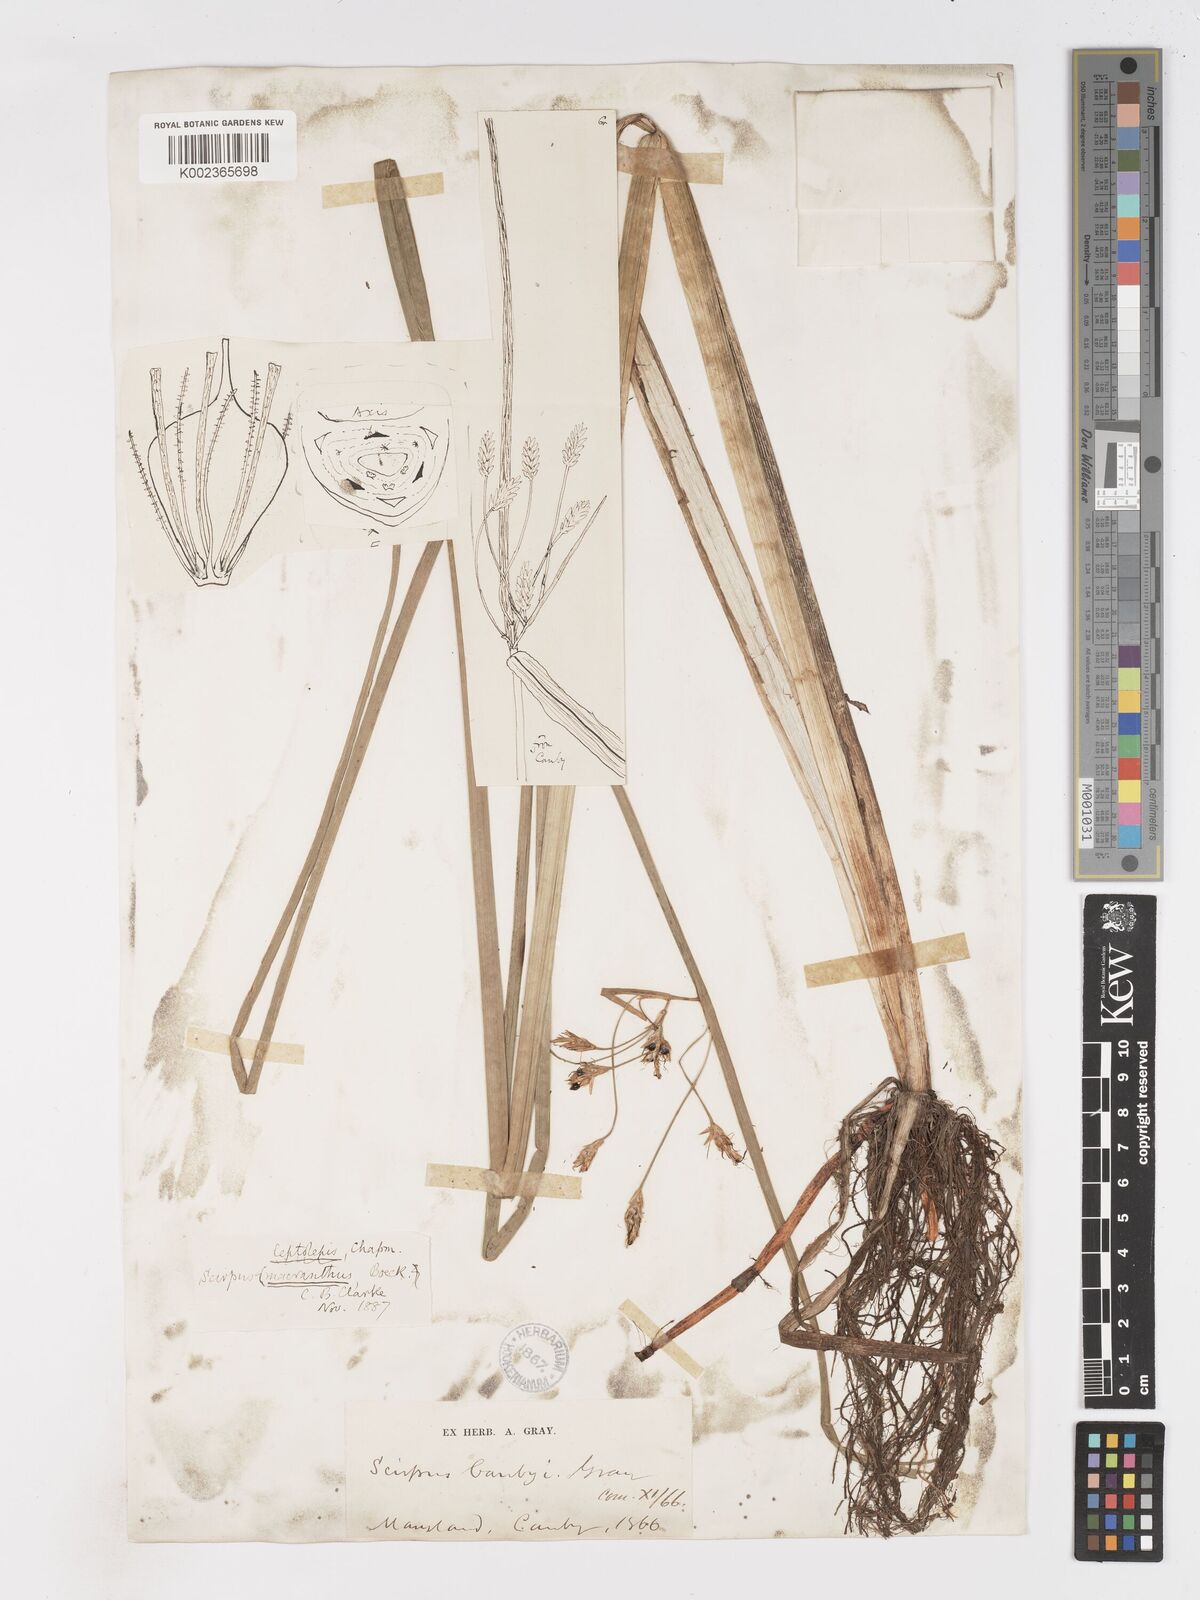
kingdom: Plantae
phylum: Tracheophyta
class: Liliopsida
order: Poales
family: Cyperaceae
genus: Schoenoplectus
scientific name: Schoenoplectus etuberculatus
